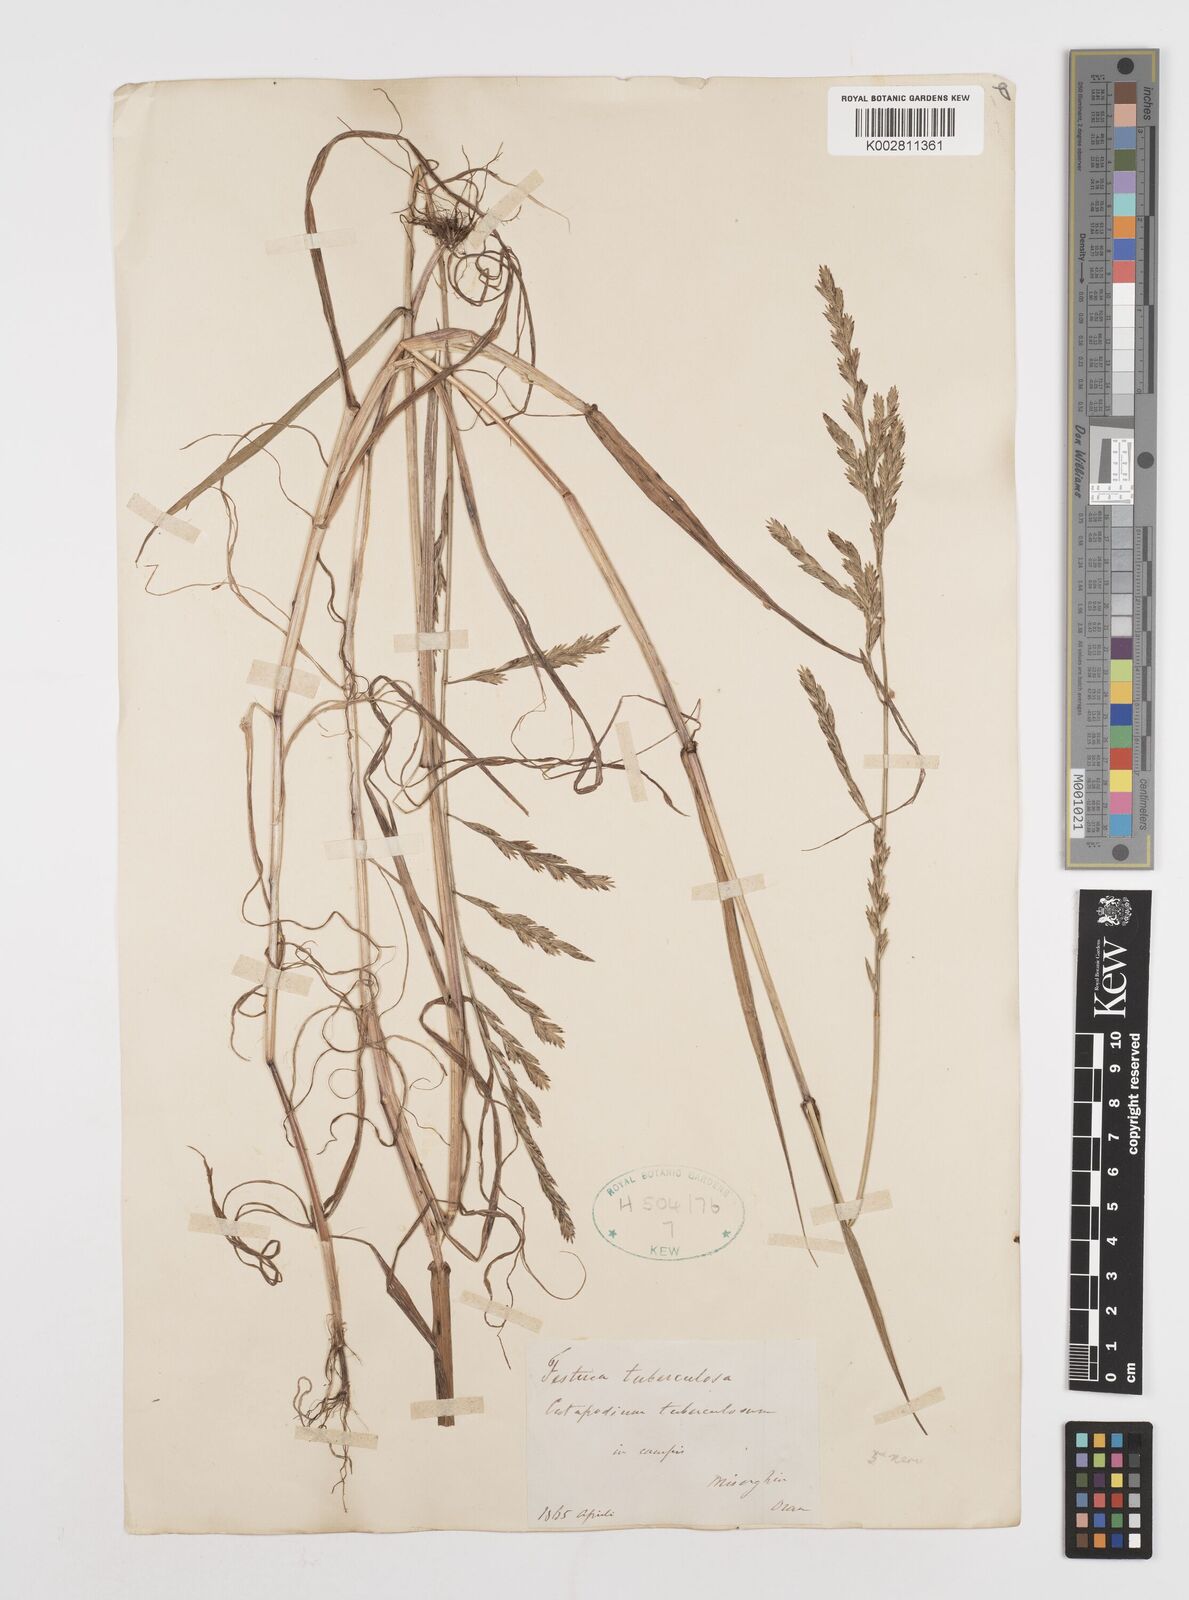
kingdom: Plantae
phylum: Tracheophyta
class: Liliopsida
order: Poales
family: Poaceae
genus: Castellia
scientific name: Castellia tuberculosa
